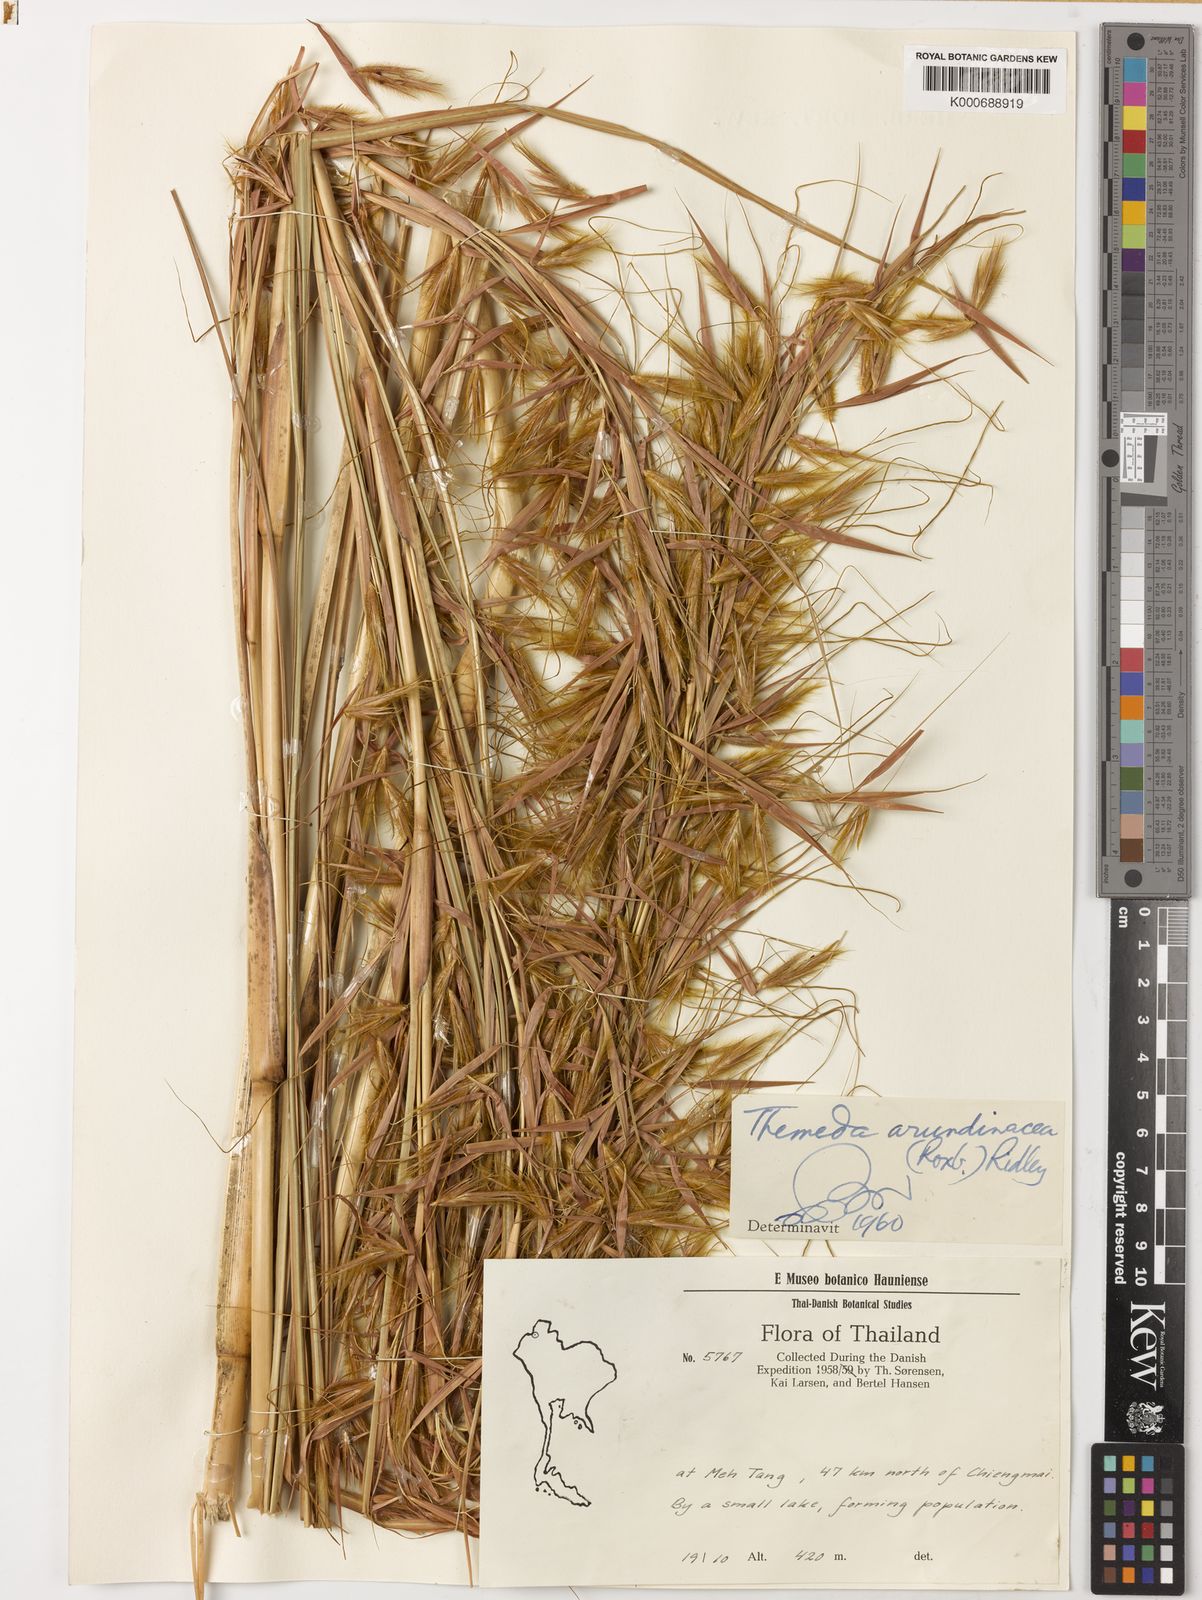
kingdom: Plantae
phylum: Tracheophyta
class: Liliopsida
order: Poales
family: Poaceae
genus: Themeda
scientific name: Themeda arundinacea
